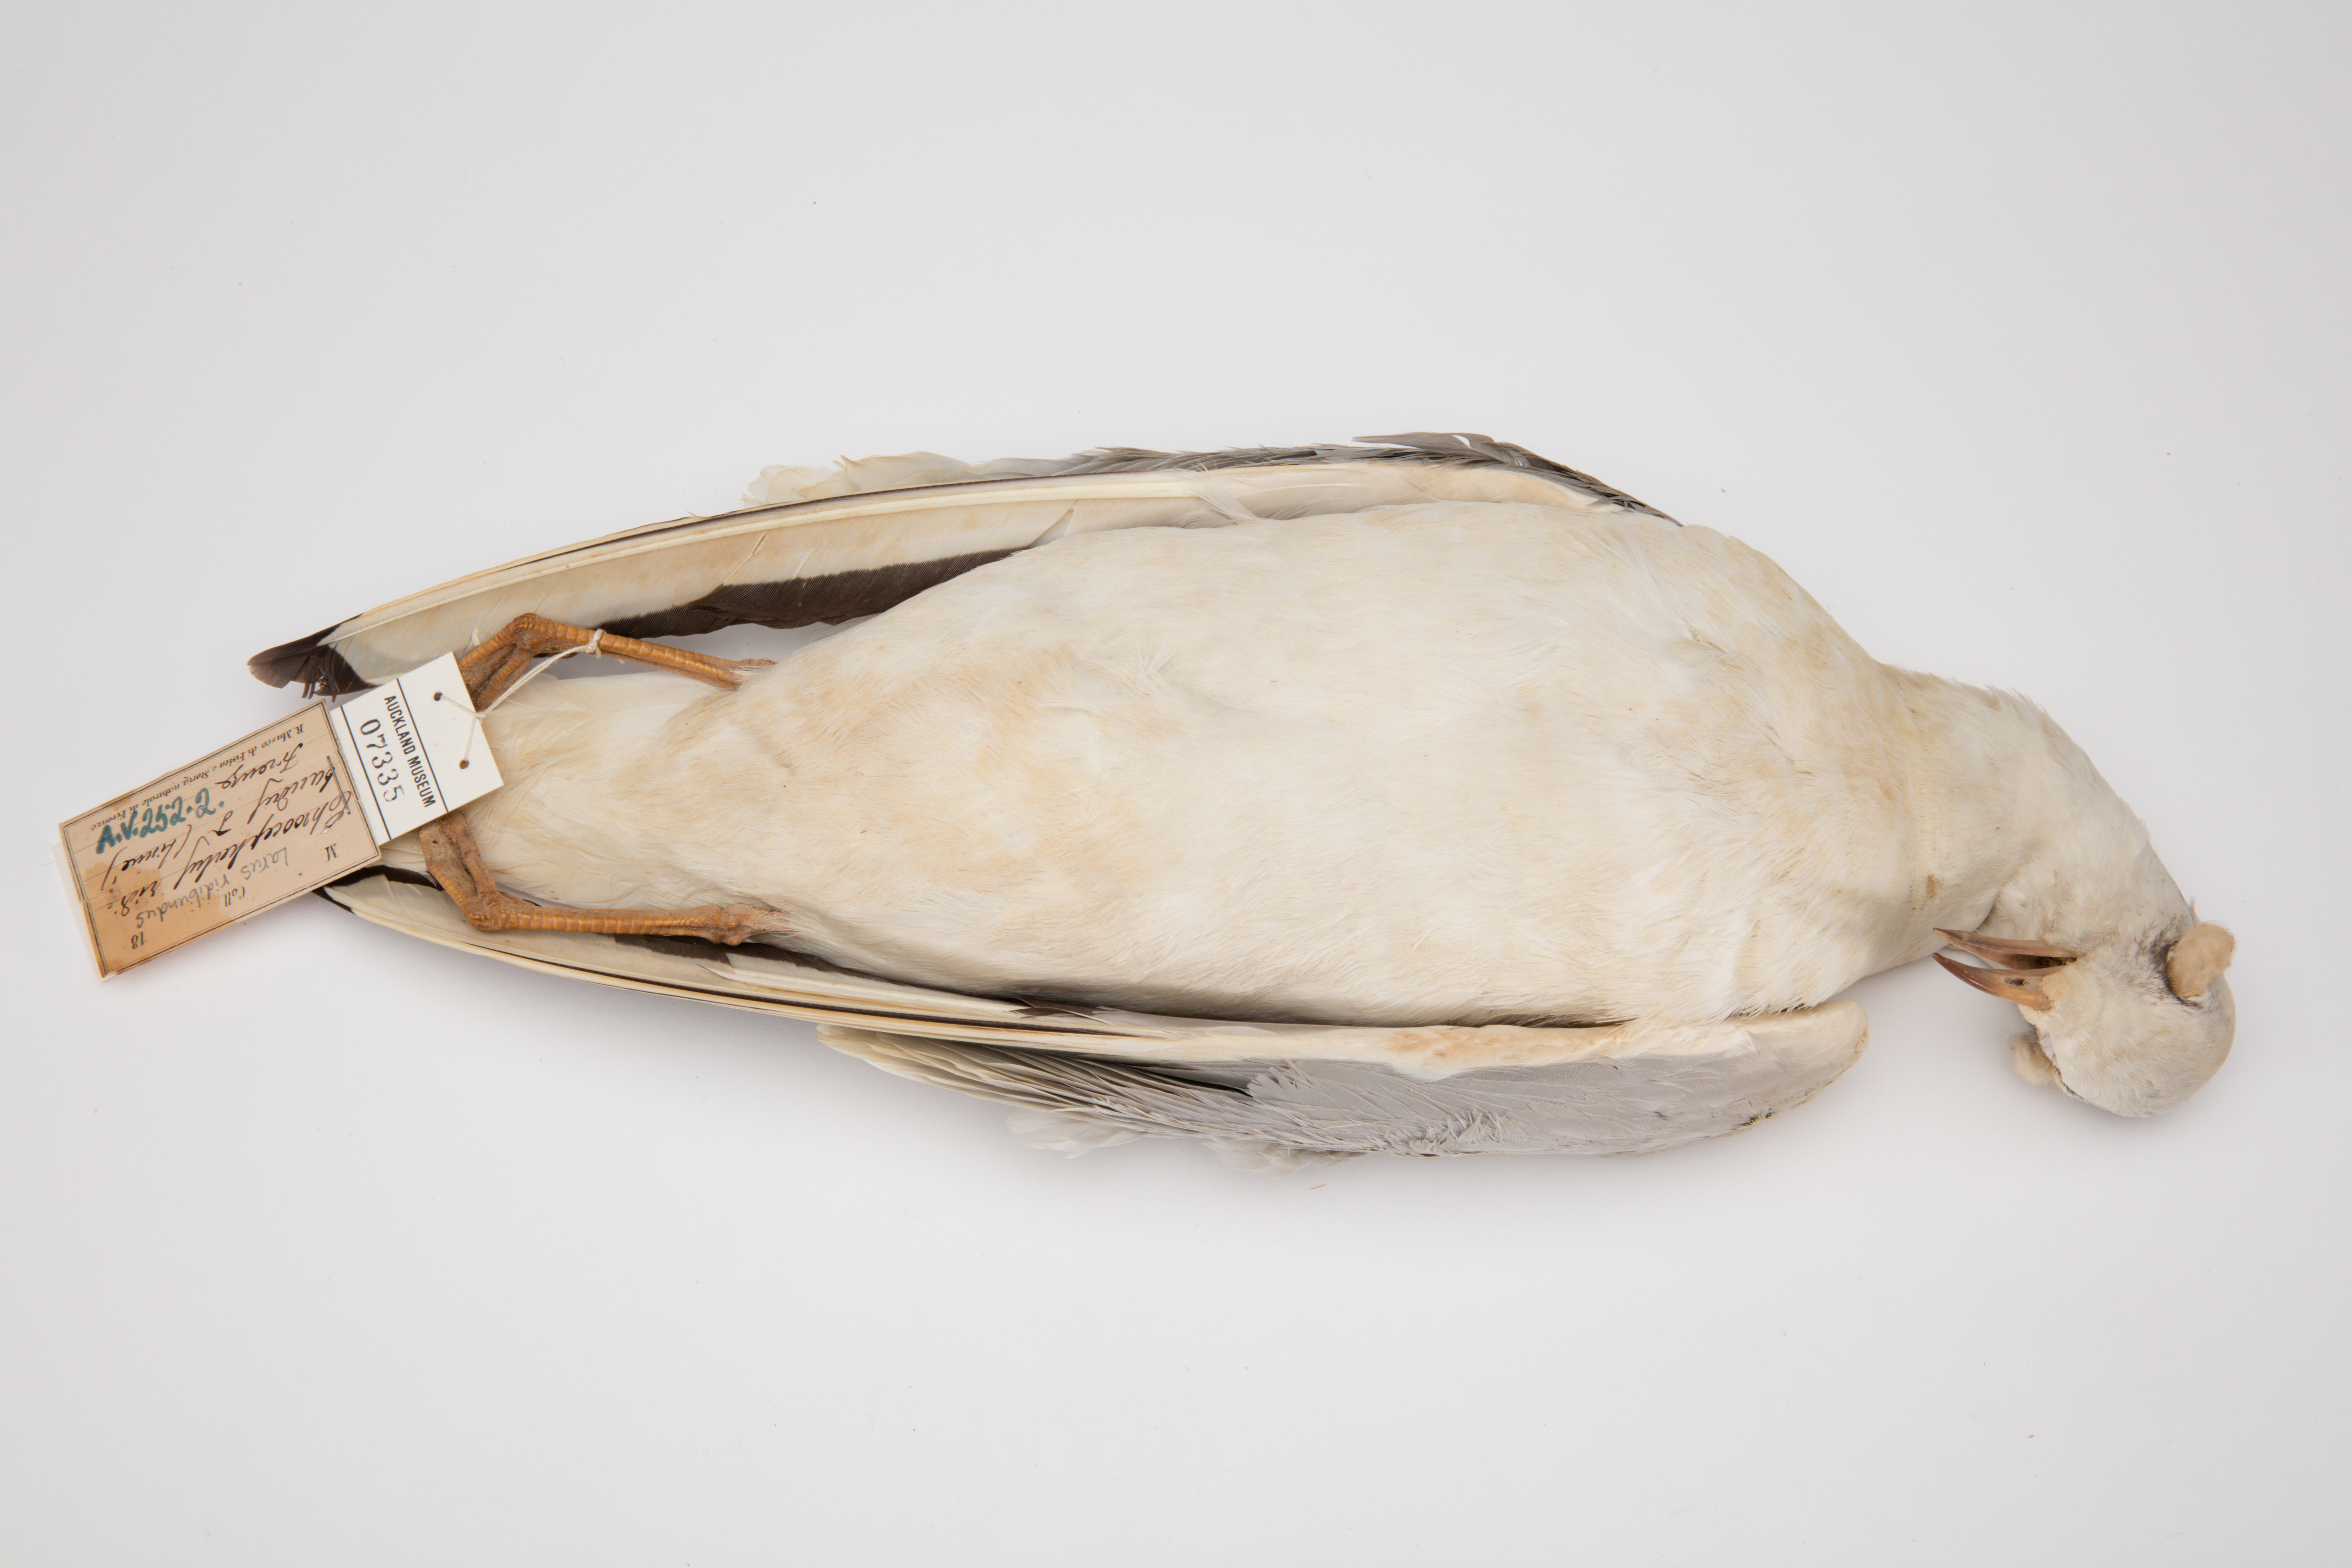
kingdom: Animalia
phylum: Chordata
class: Aves
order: Charadriiformes
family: Laridae
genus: Chroicocephalus
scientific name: Chroicocephalus ridibundus
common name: Black-headed gull
